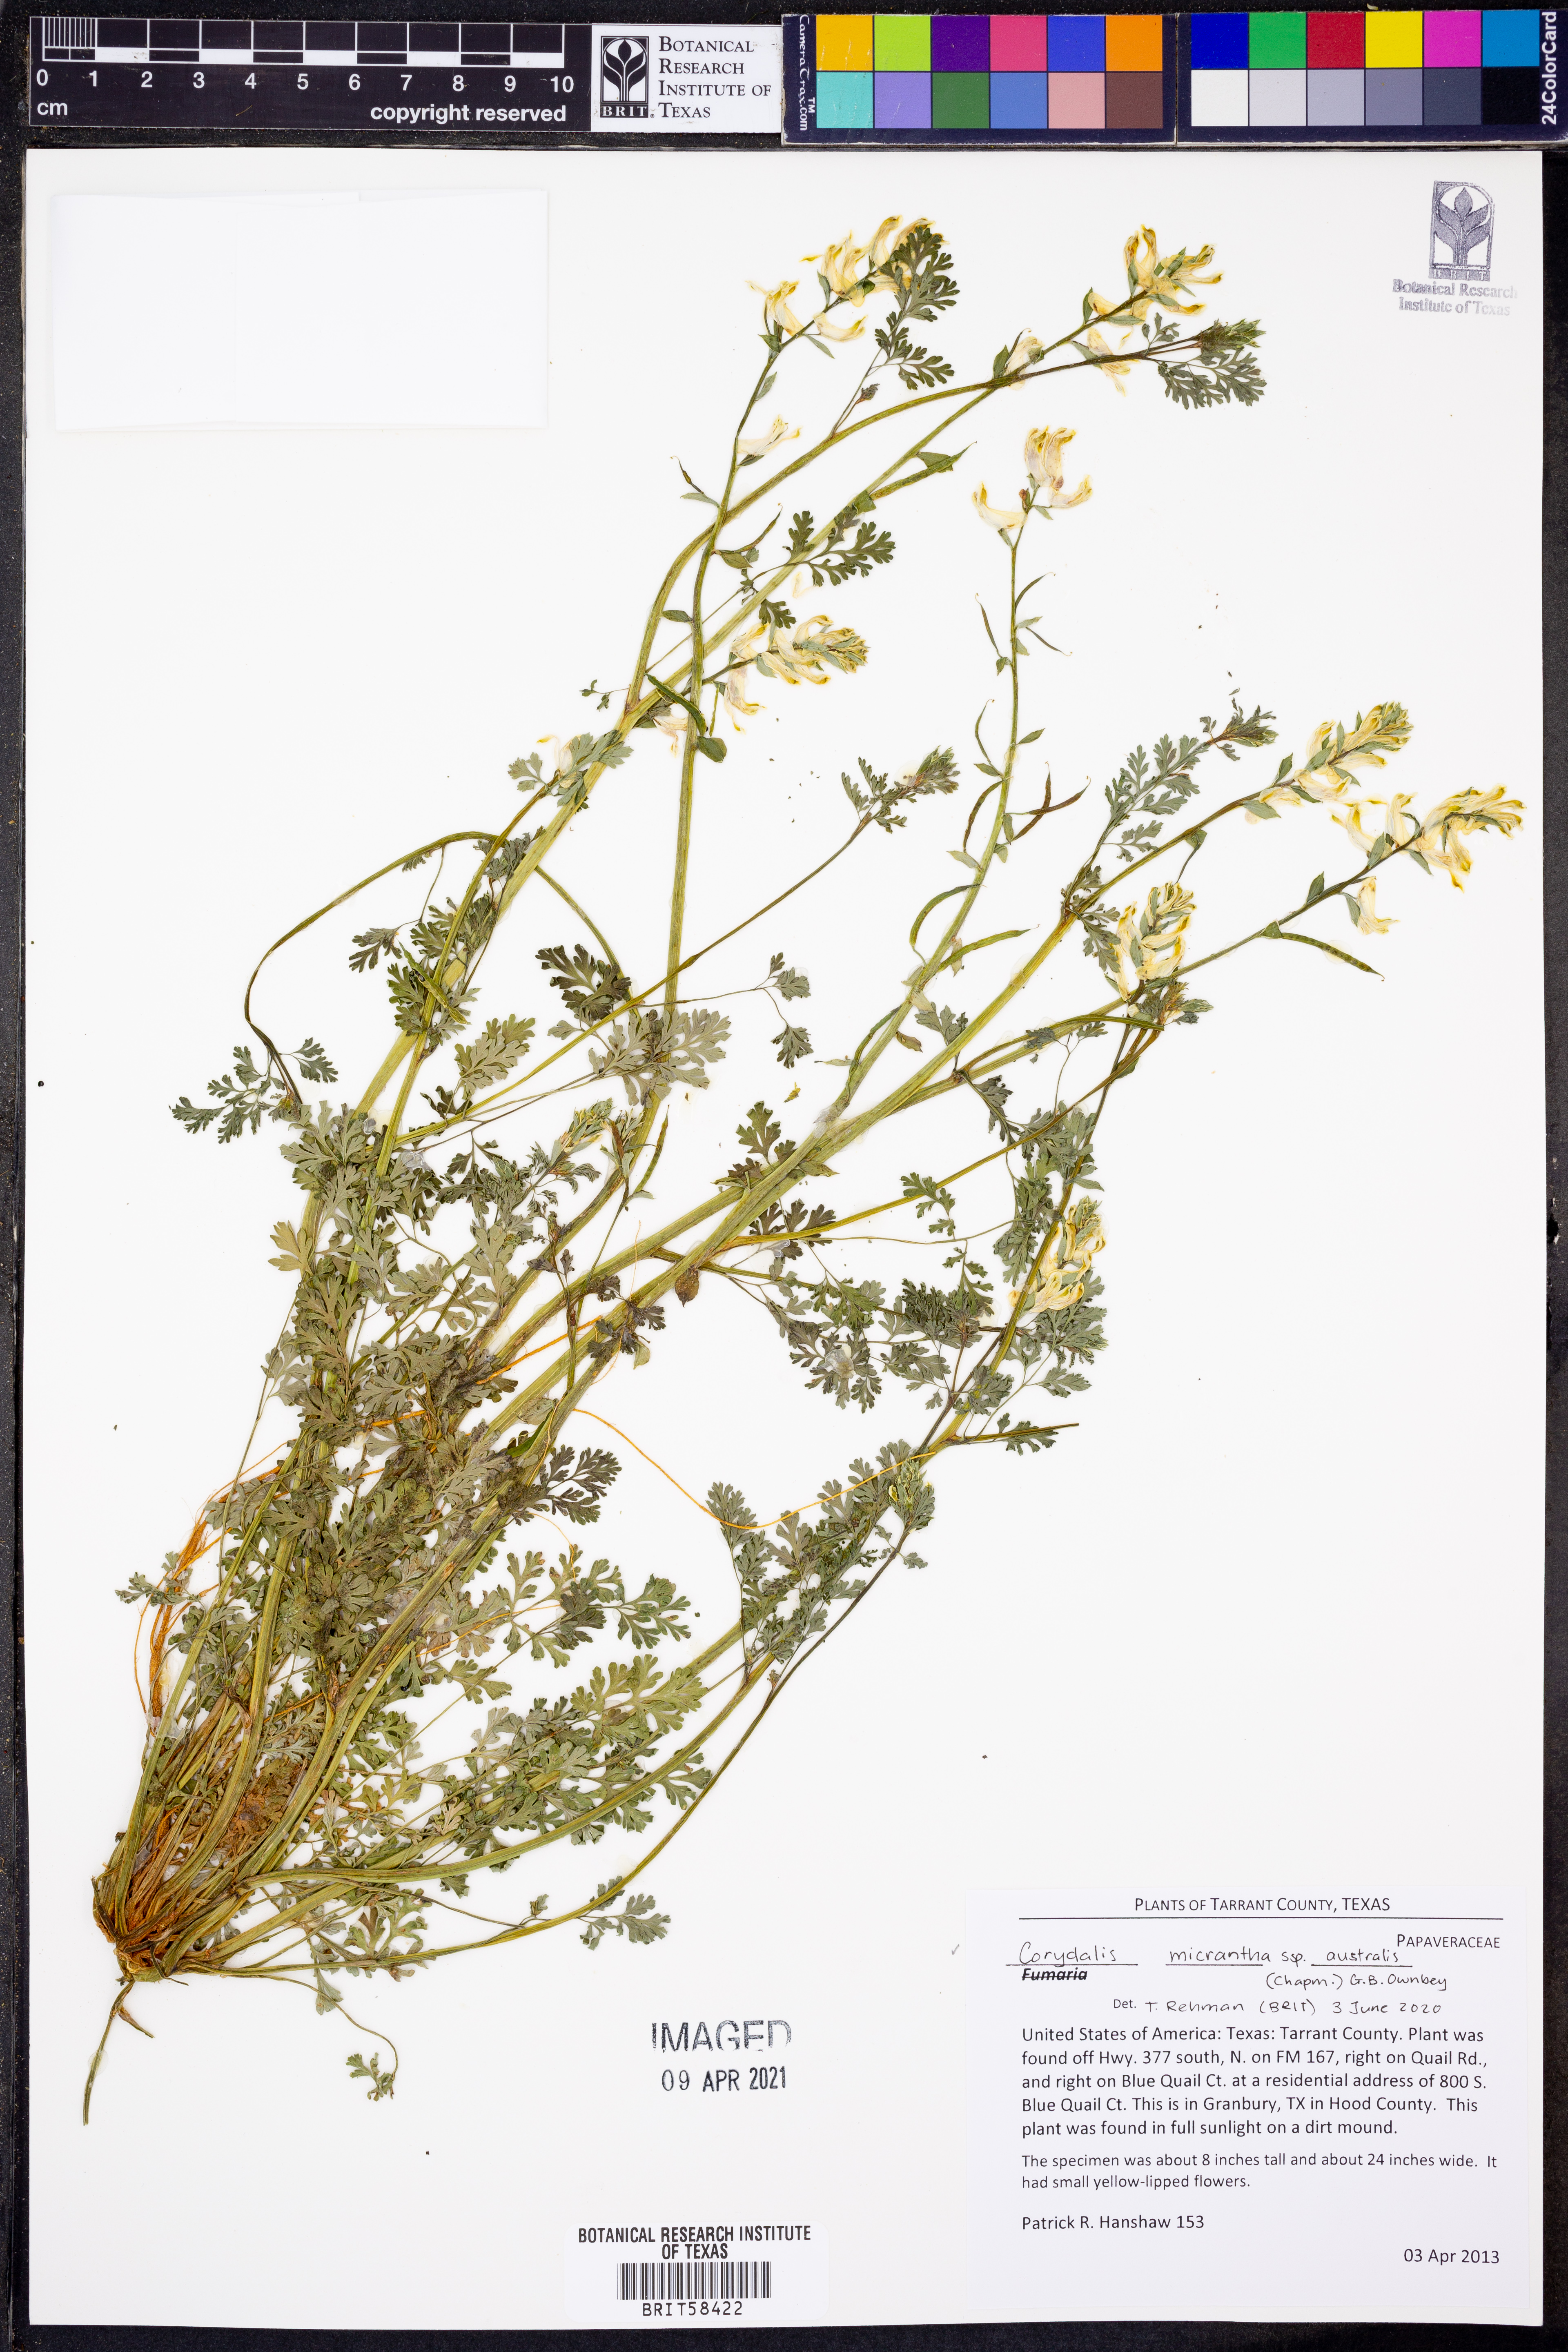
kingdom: Plantae
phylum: Tracheophyta
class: Magnoliopsida
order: Ranunculales
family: Papaveraceae
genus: Corydalis
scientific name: Corydalis micrantha
